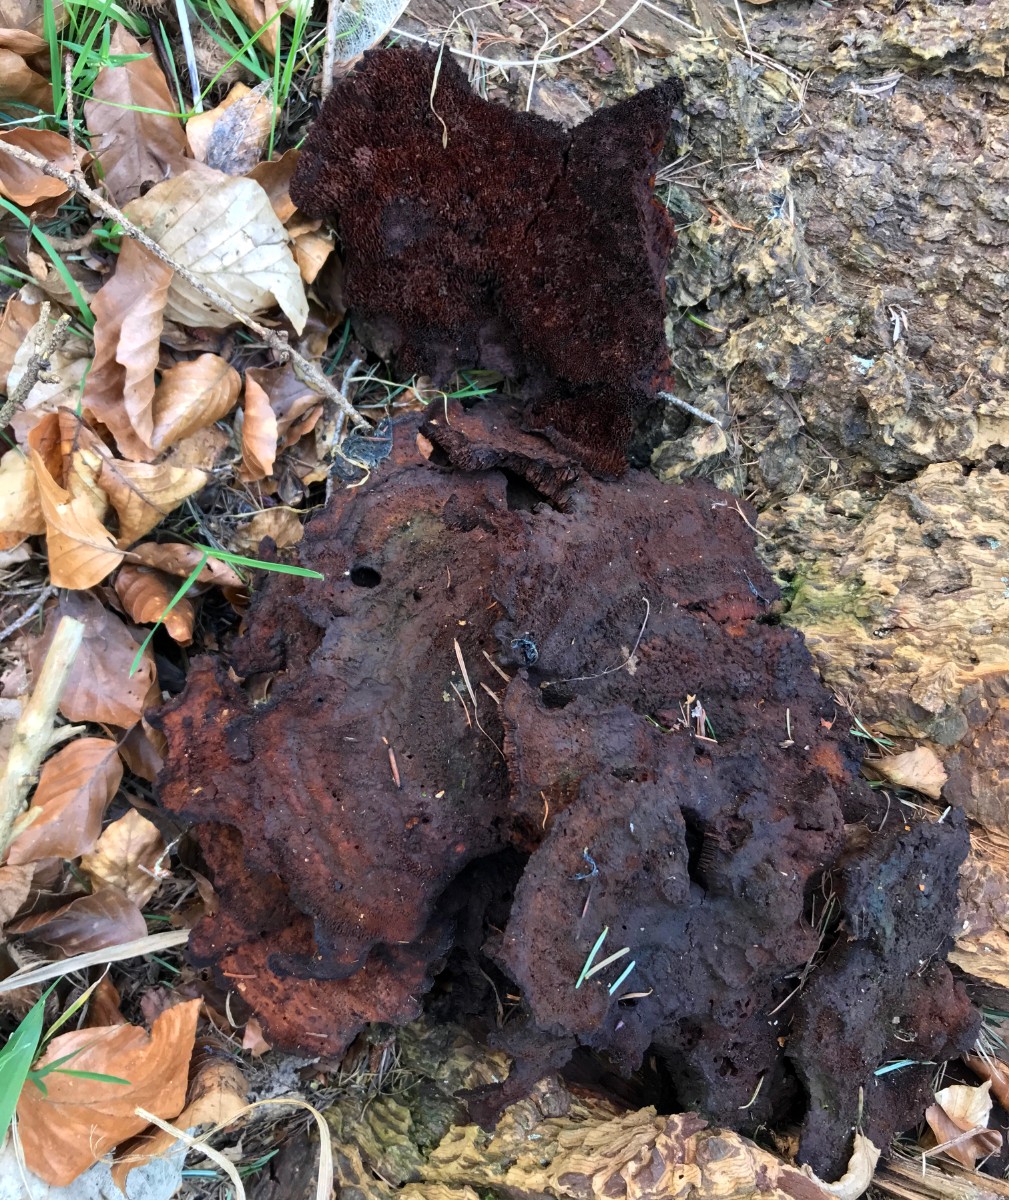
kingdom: Fungi
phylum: Basidiomycota
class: Agaricomycetes
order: Polyporales
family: Laetiporaceae
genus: Phaeolus
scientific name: Phaeolus schweinitzii
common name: brunporesvamp
